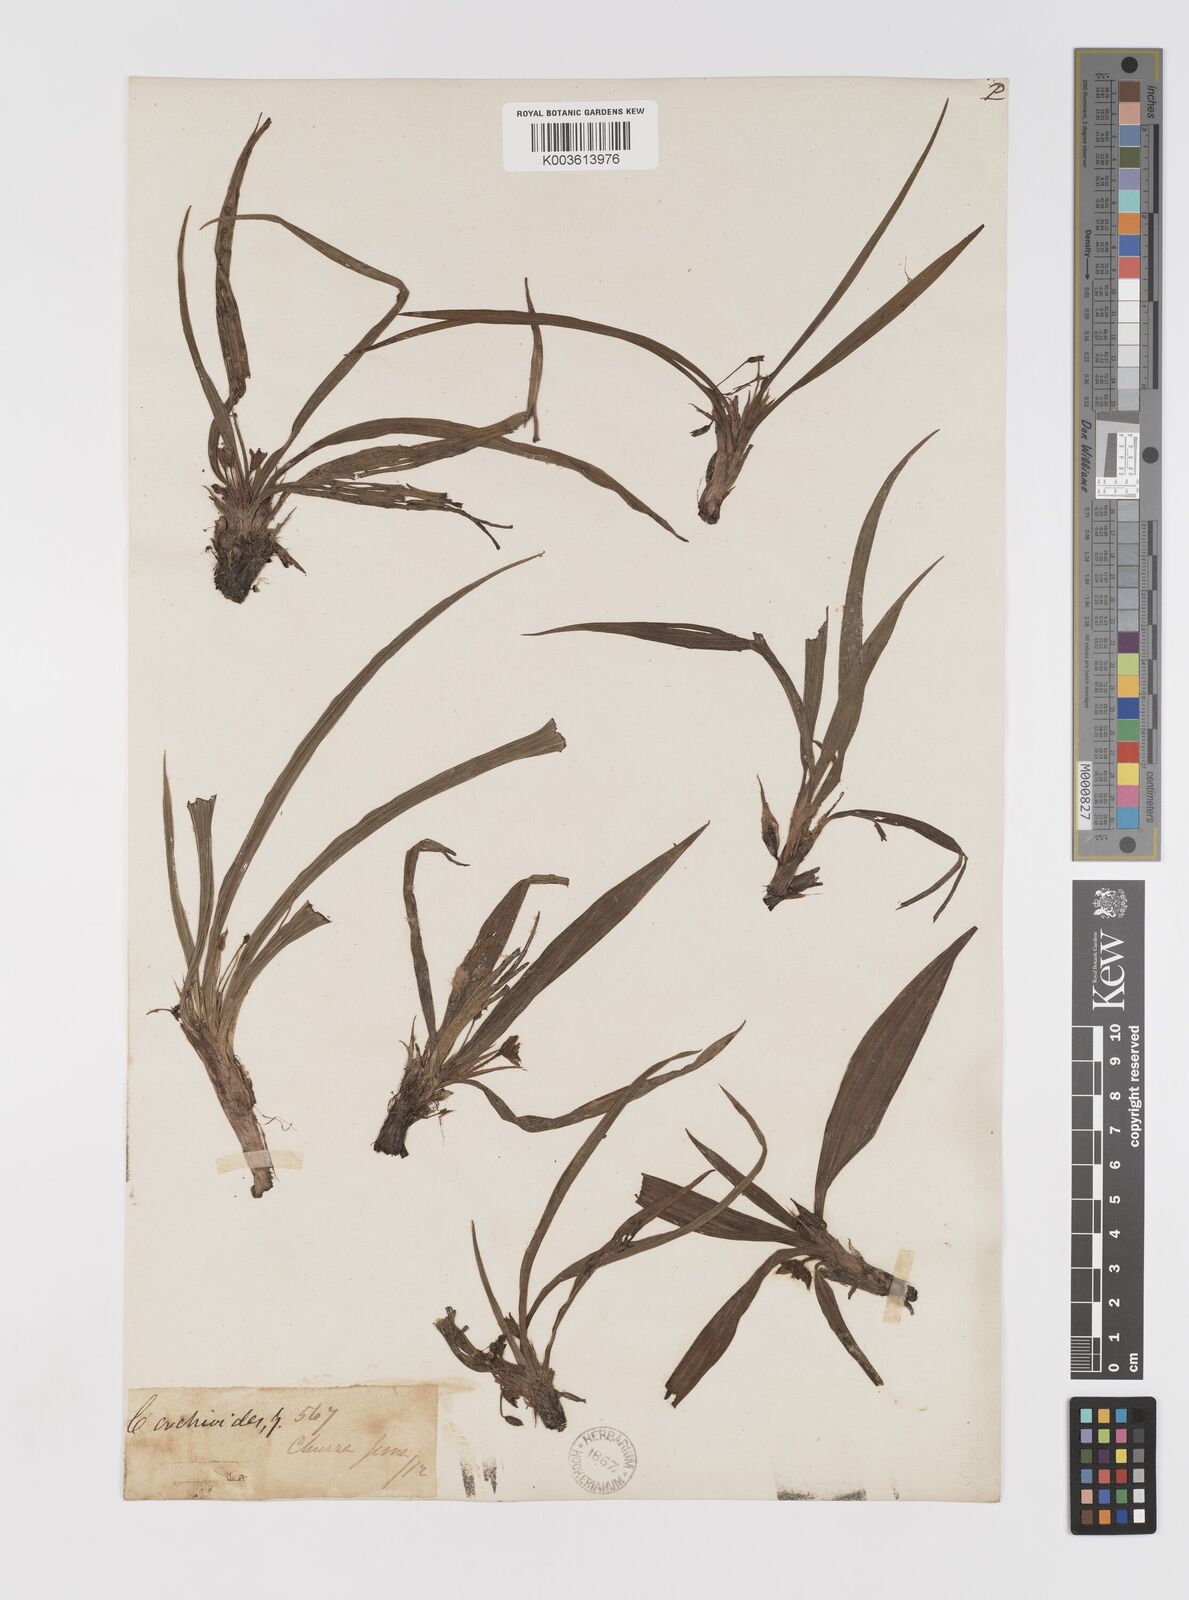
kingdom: Plantae
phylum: Tracheophyta
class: Liliopsida
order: Asparagales
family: Hypoxidaceae
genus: Curculigo
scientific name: Curculigo orchioides
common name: Golden eye-grass
